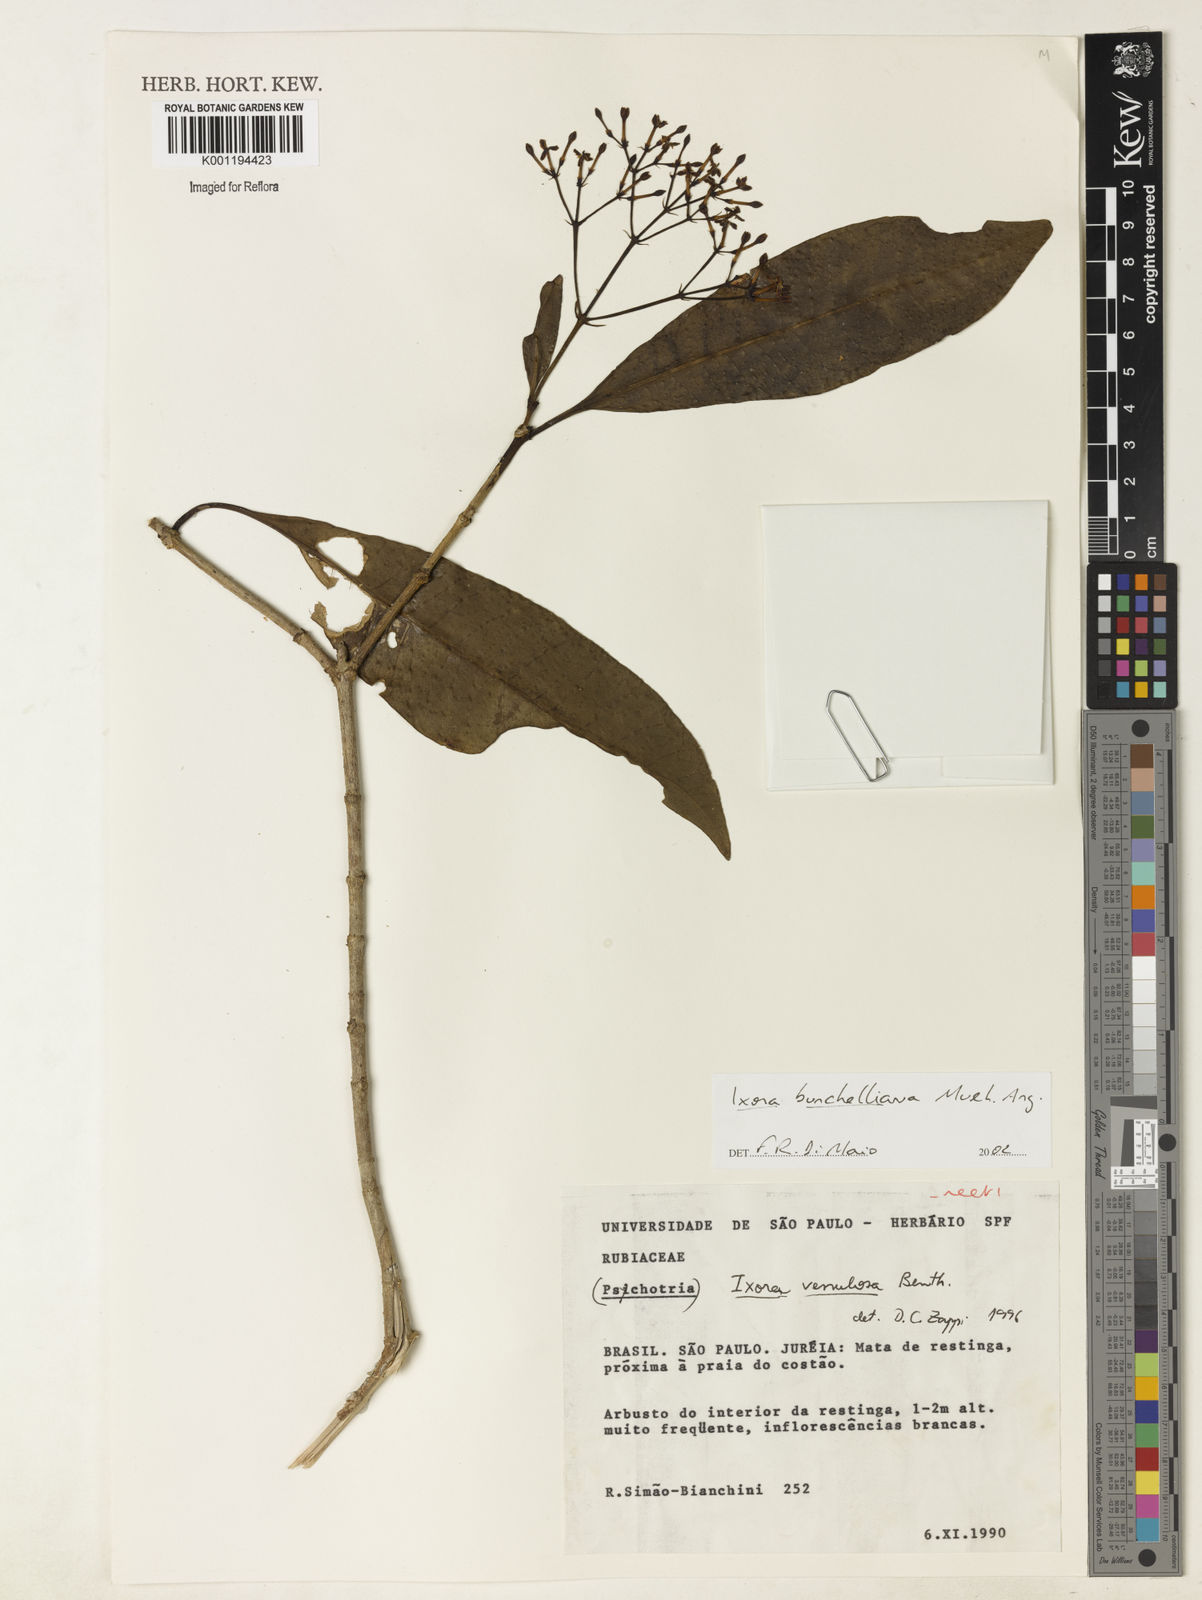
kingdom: Plantae
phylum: Tracheophyta
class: Magnoliopsida
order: Gentianales
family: Rubiaceae
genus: Ixora
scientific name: Ixora
